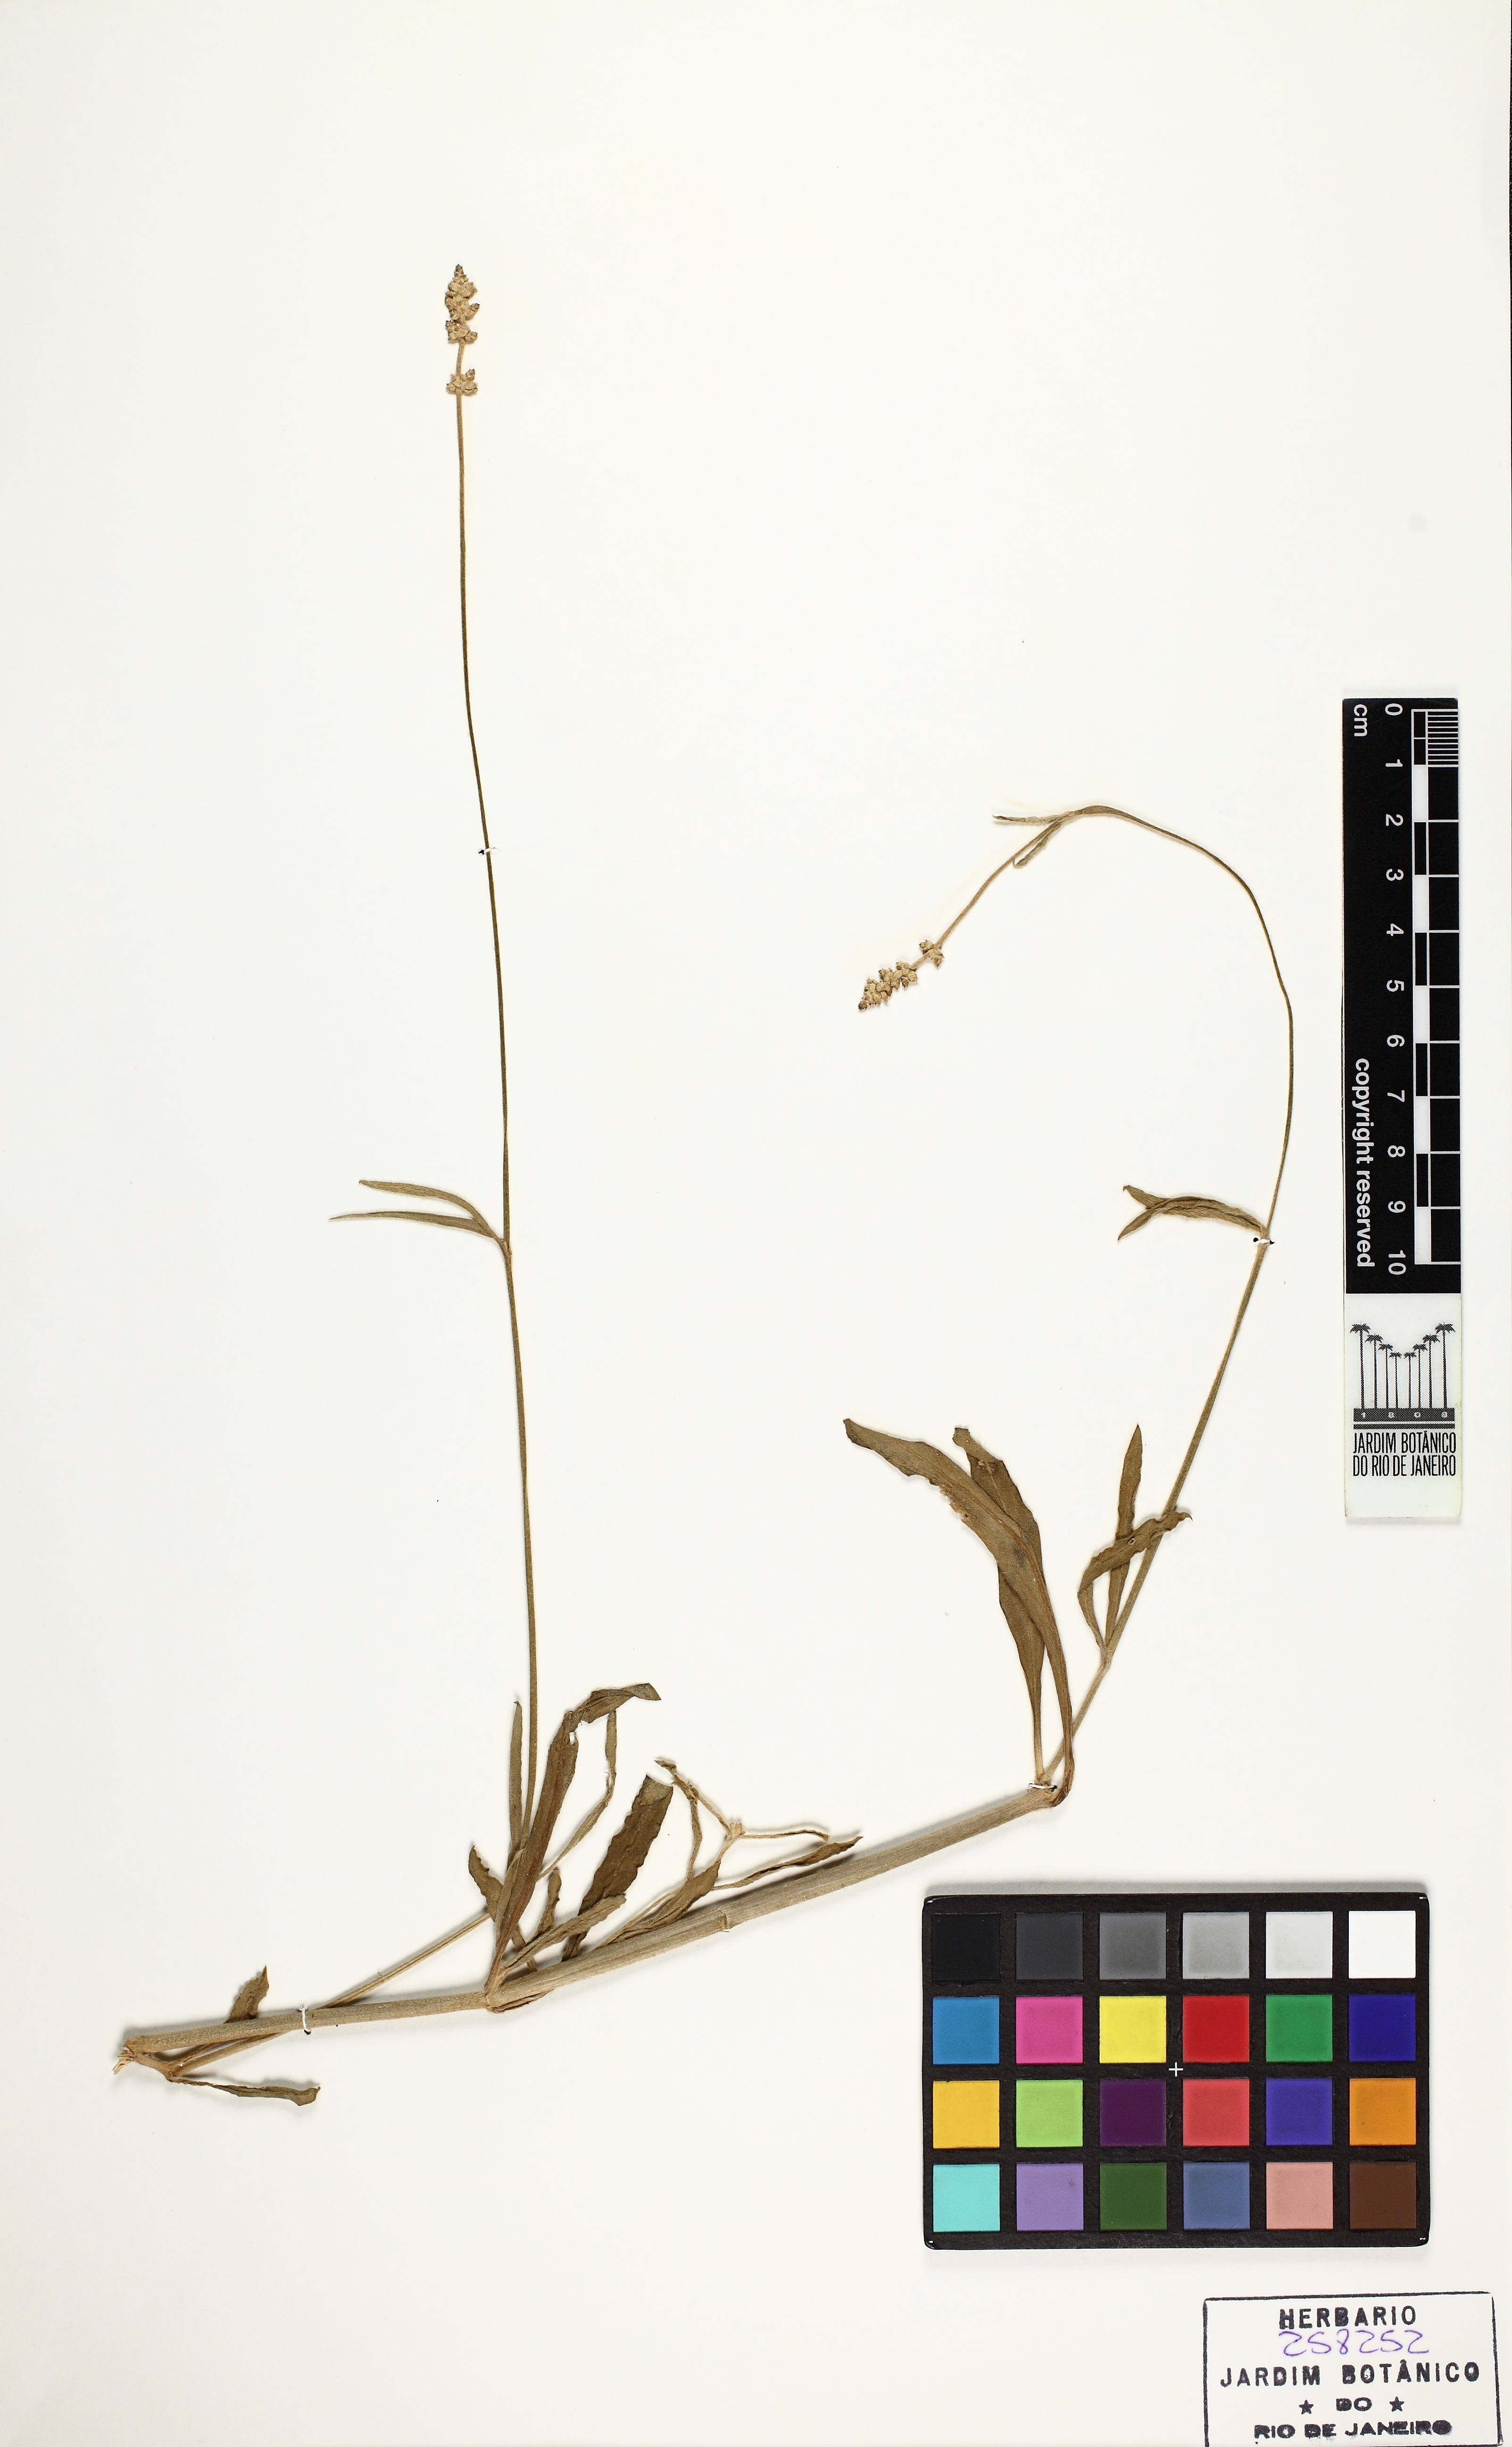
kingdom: Plantae
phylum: Tracheophyta
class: Magnoliopsida
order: Caryophyllales
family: Amaranthaceae
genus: Froelichia
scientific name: Froelichia floridana
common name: Florida snake-cotton
